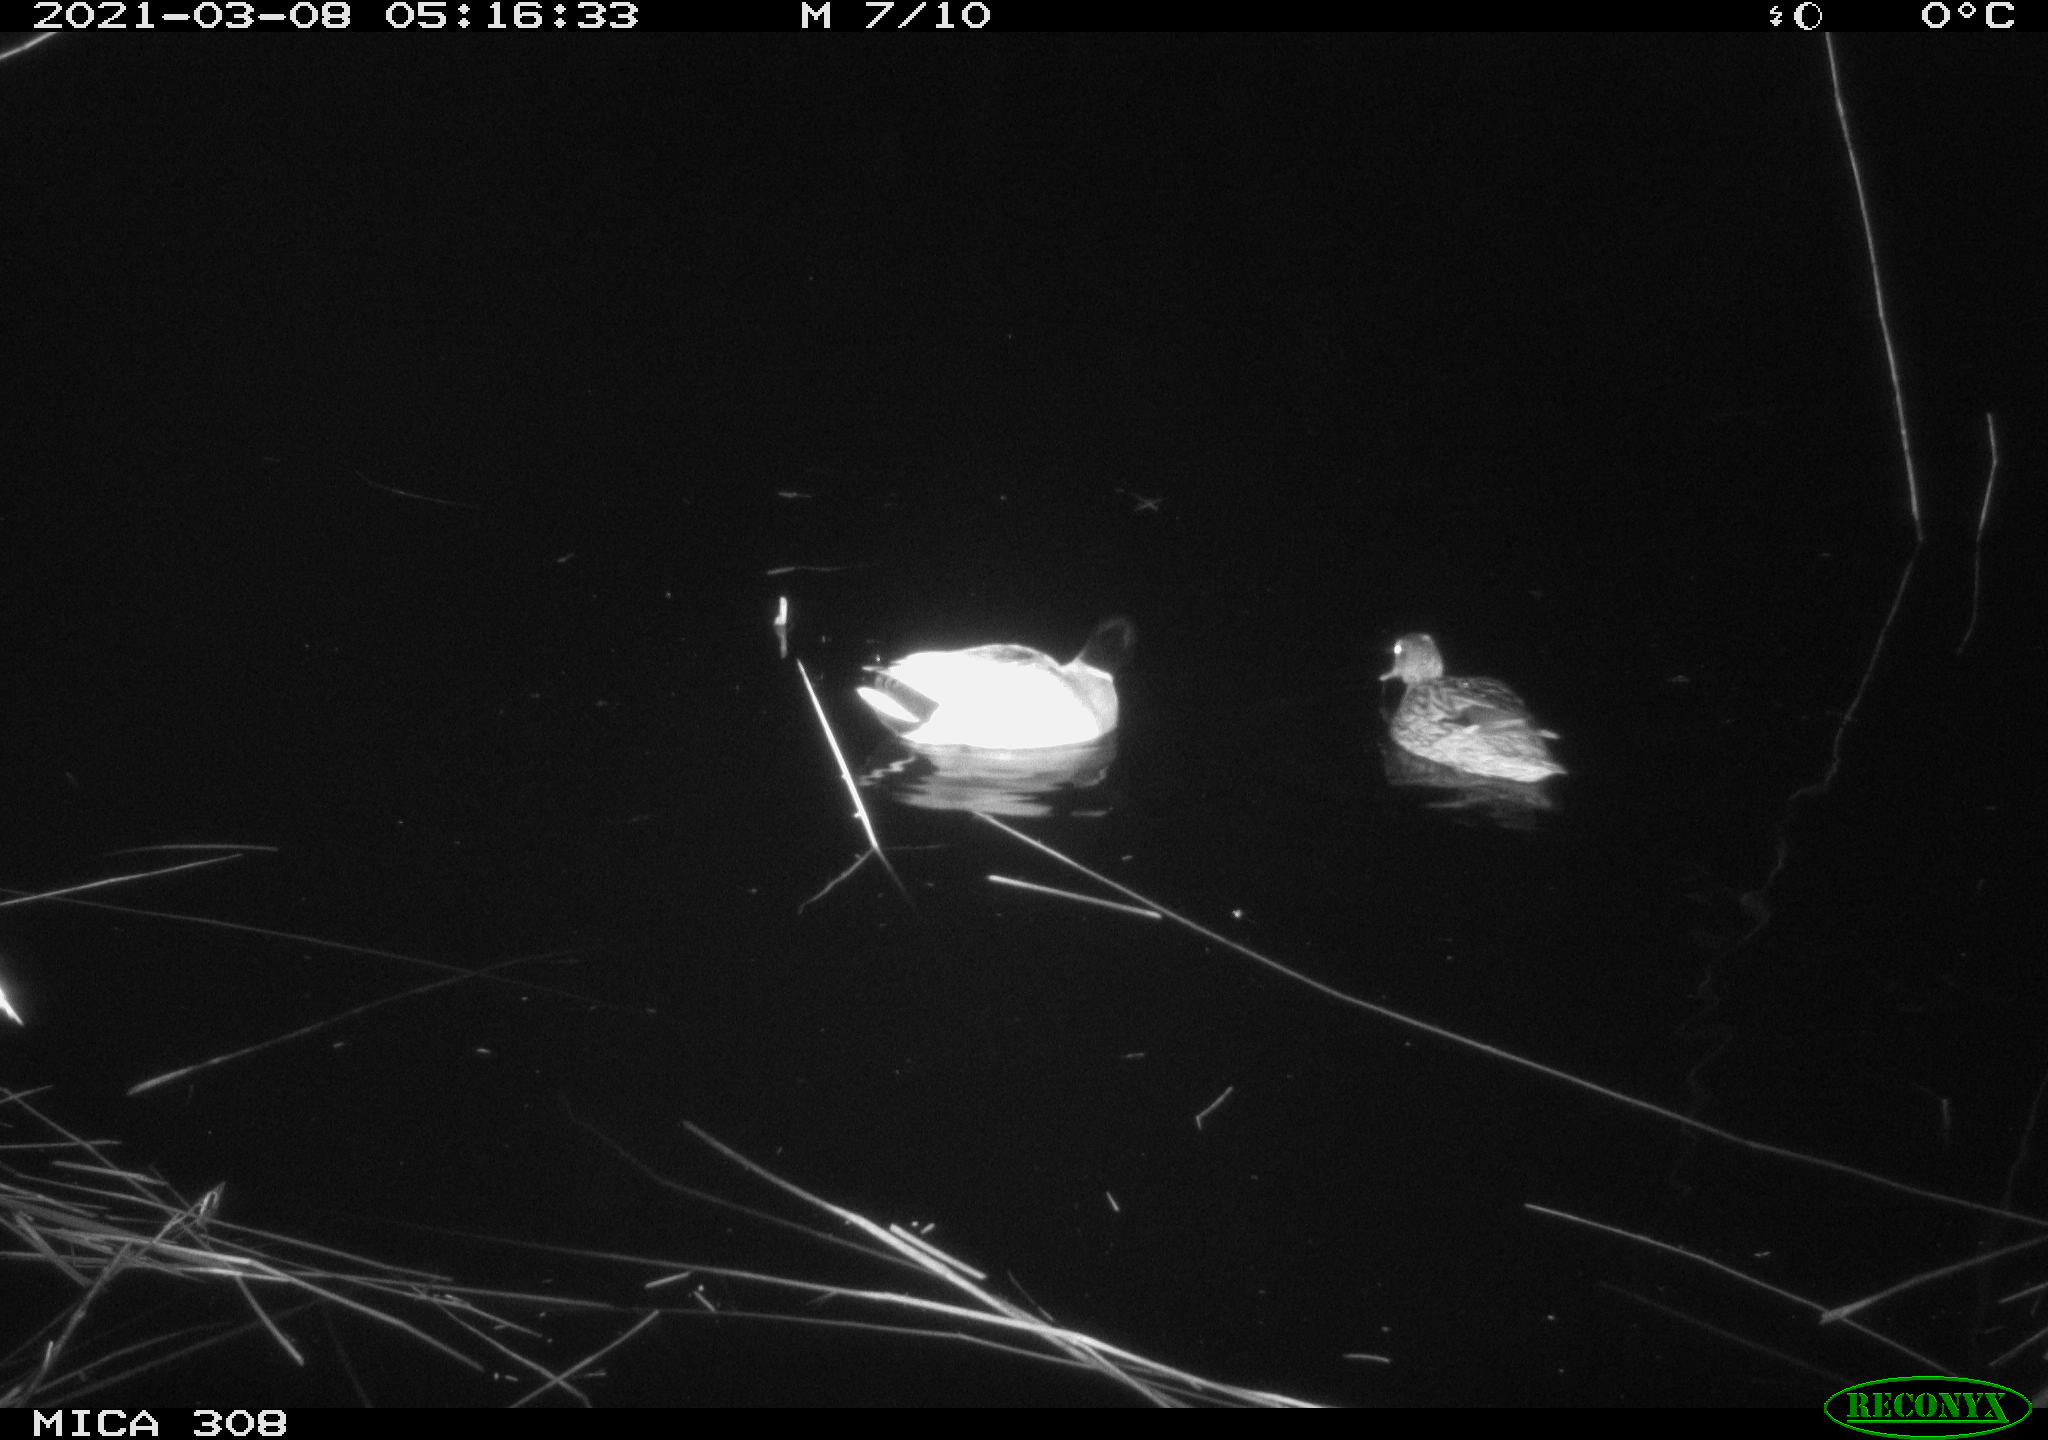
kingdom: Animalia
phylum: Chordata
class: Aves
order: Gruiformes
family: Rallidae
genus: Gallinula
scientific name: Gallinula chloropus
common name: Common moorhen
